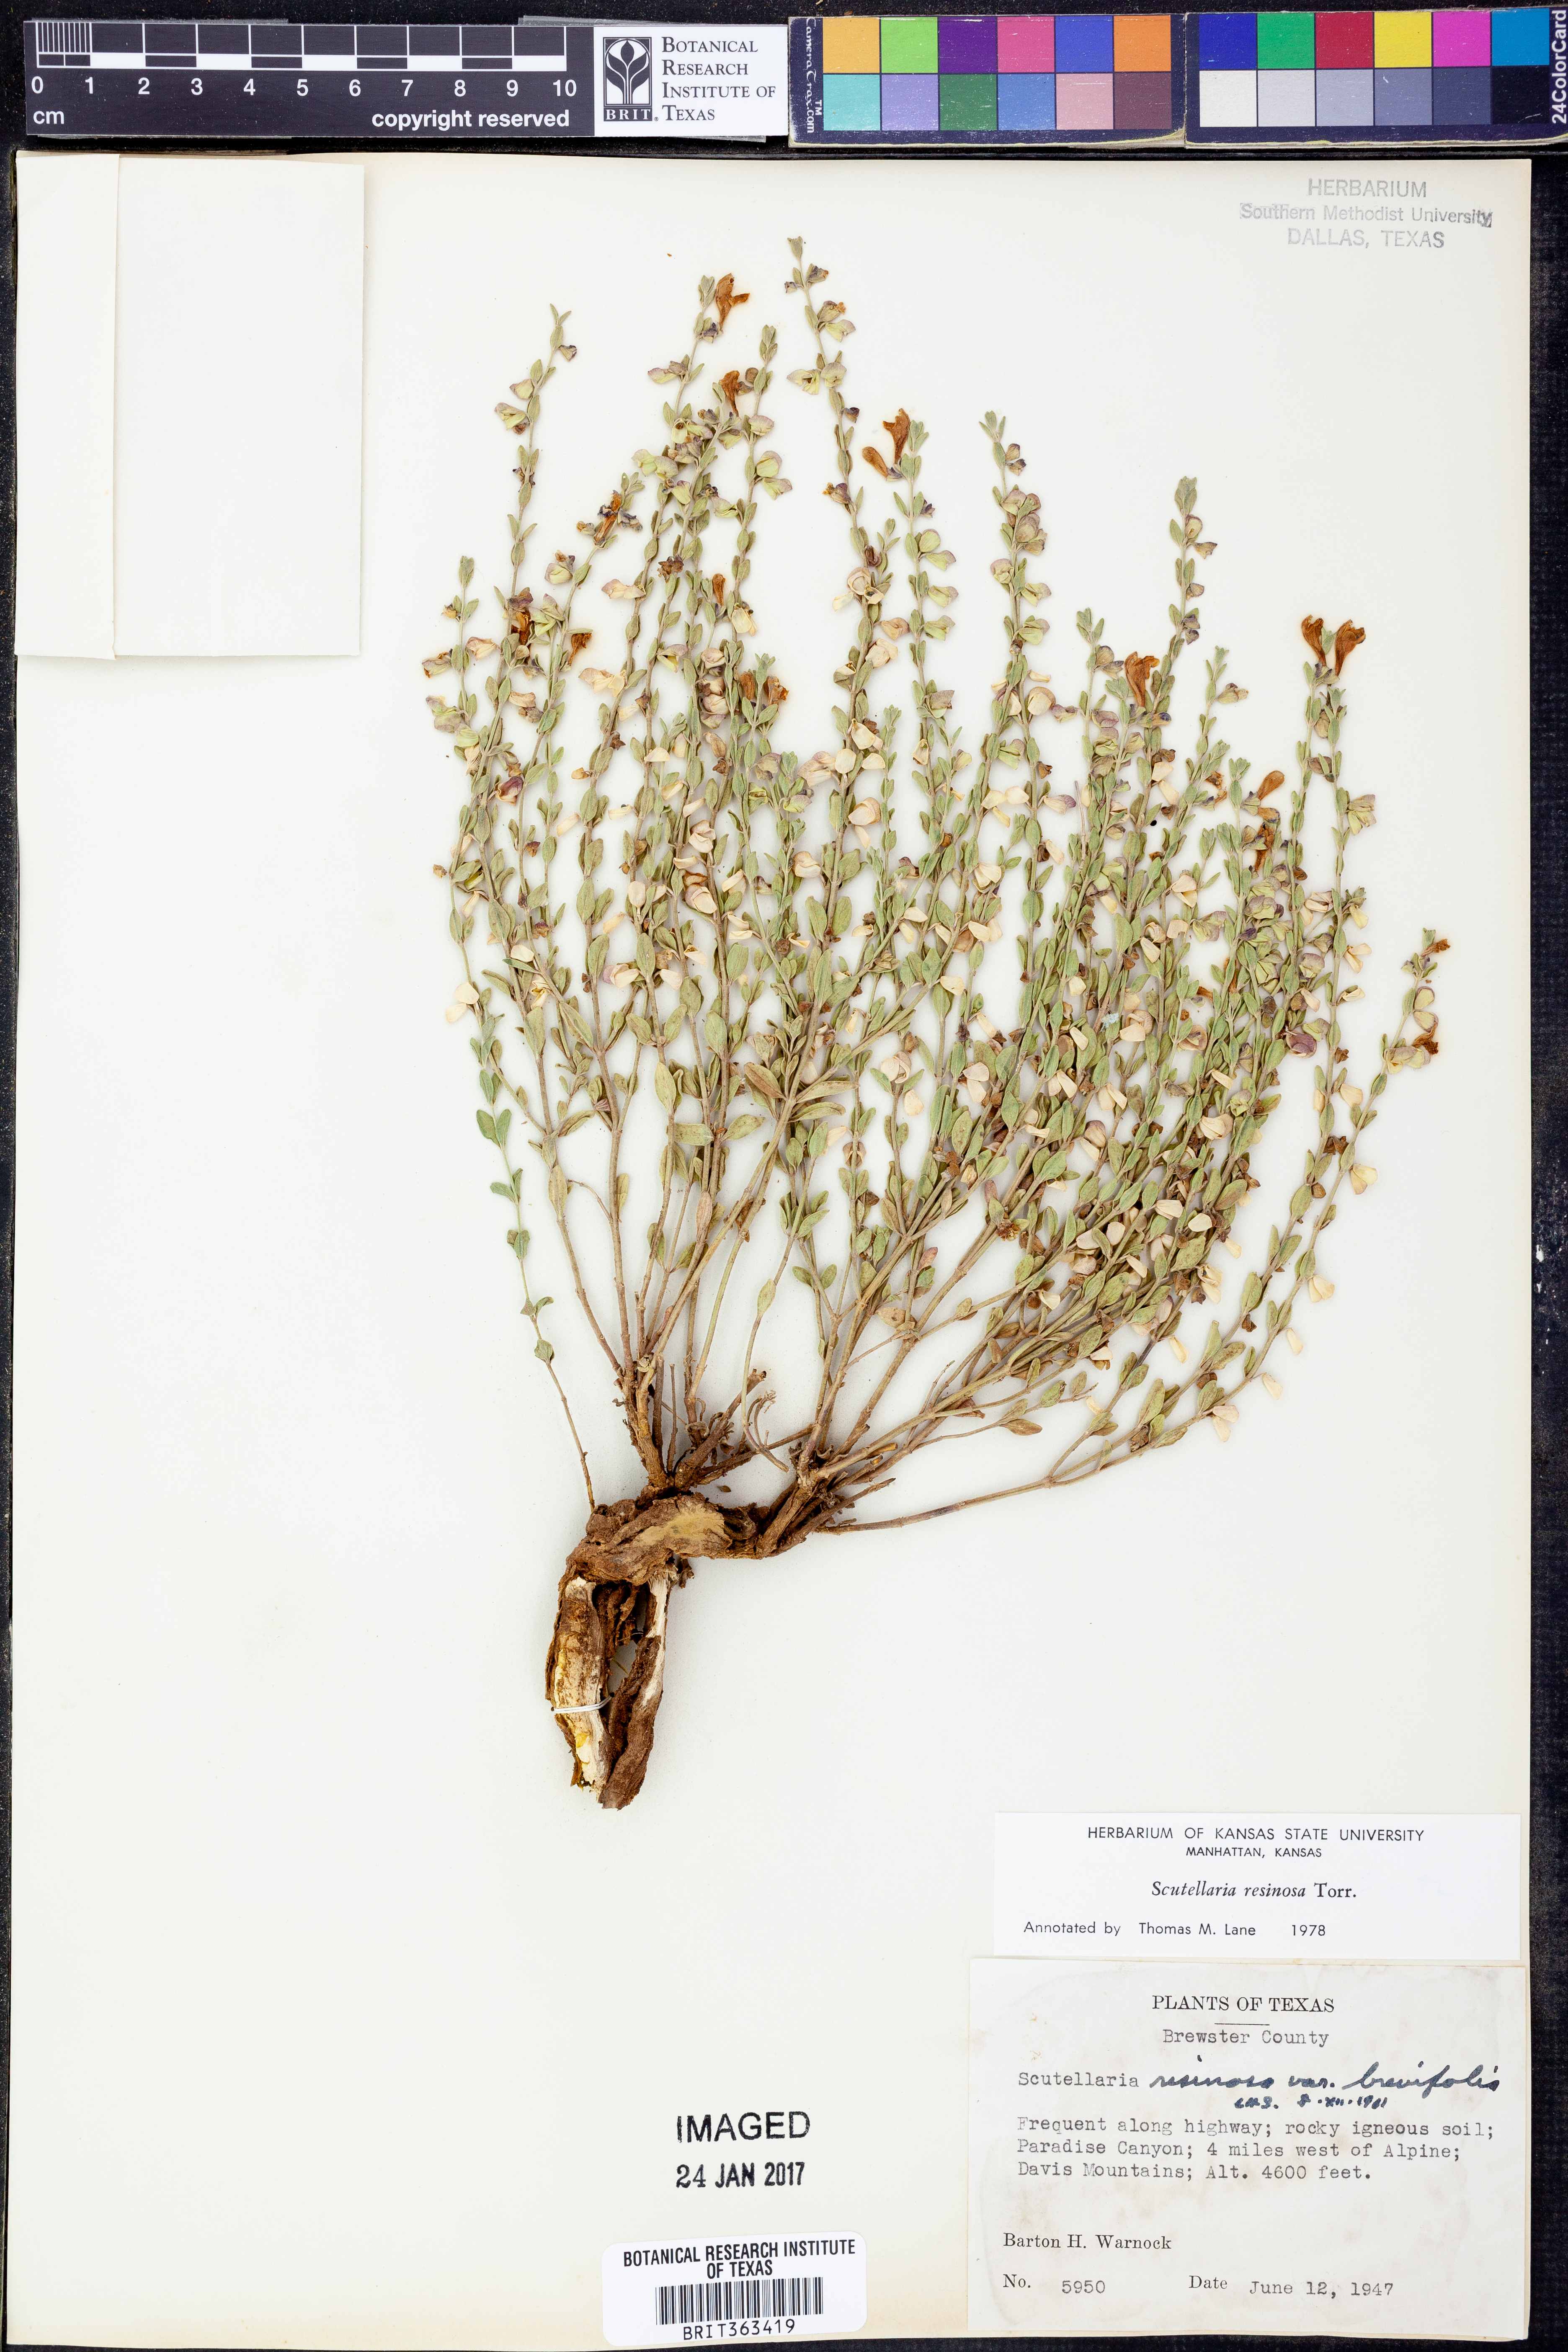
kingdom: Plantae
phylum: Tracheophyta
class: Magnoliopsida
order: Lamiales
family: Lamiaceae
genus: Scutellaria
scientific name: Scutellaria resinosa
